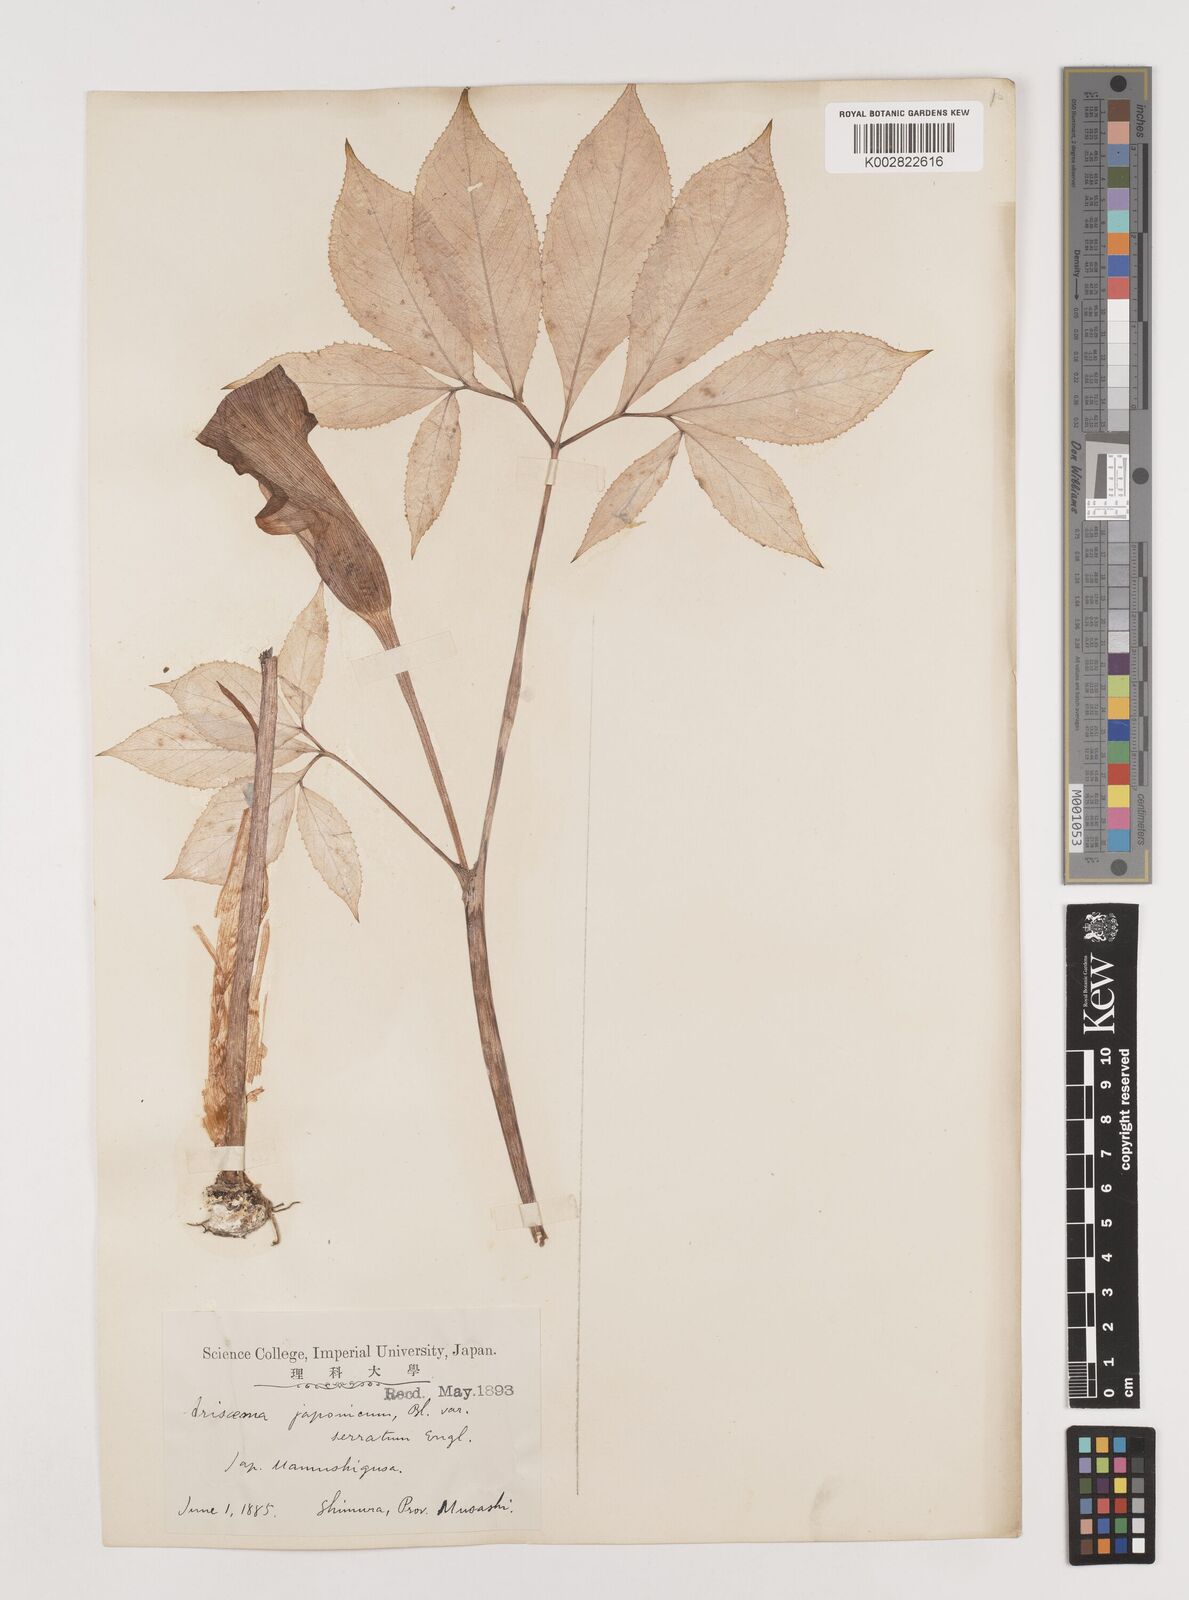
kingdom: Plantae
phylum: Tracheophyta
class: Liliopsida
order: Alismatales
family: Araceae
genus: Arisaema
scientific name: Arisaema serratum
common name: Japanese arisaema
